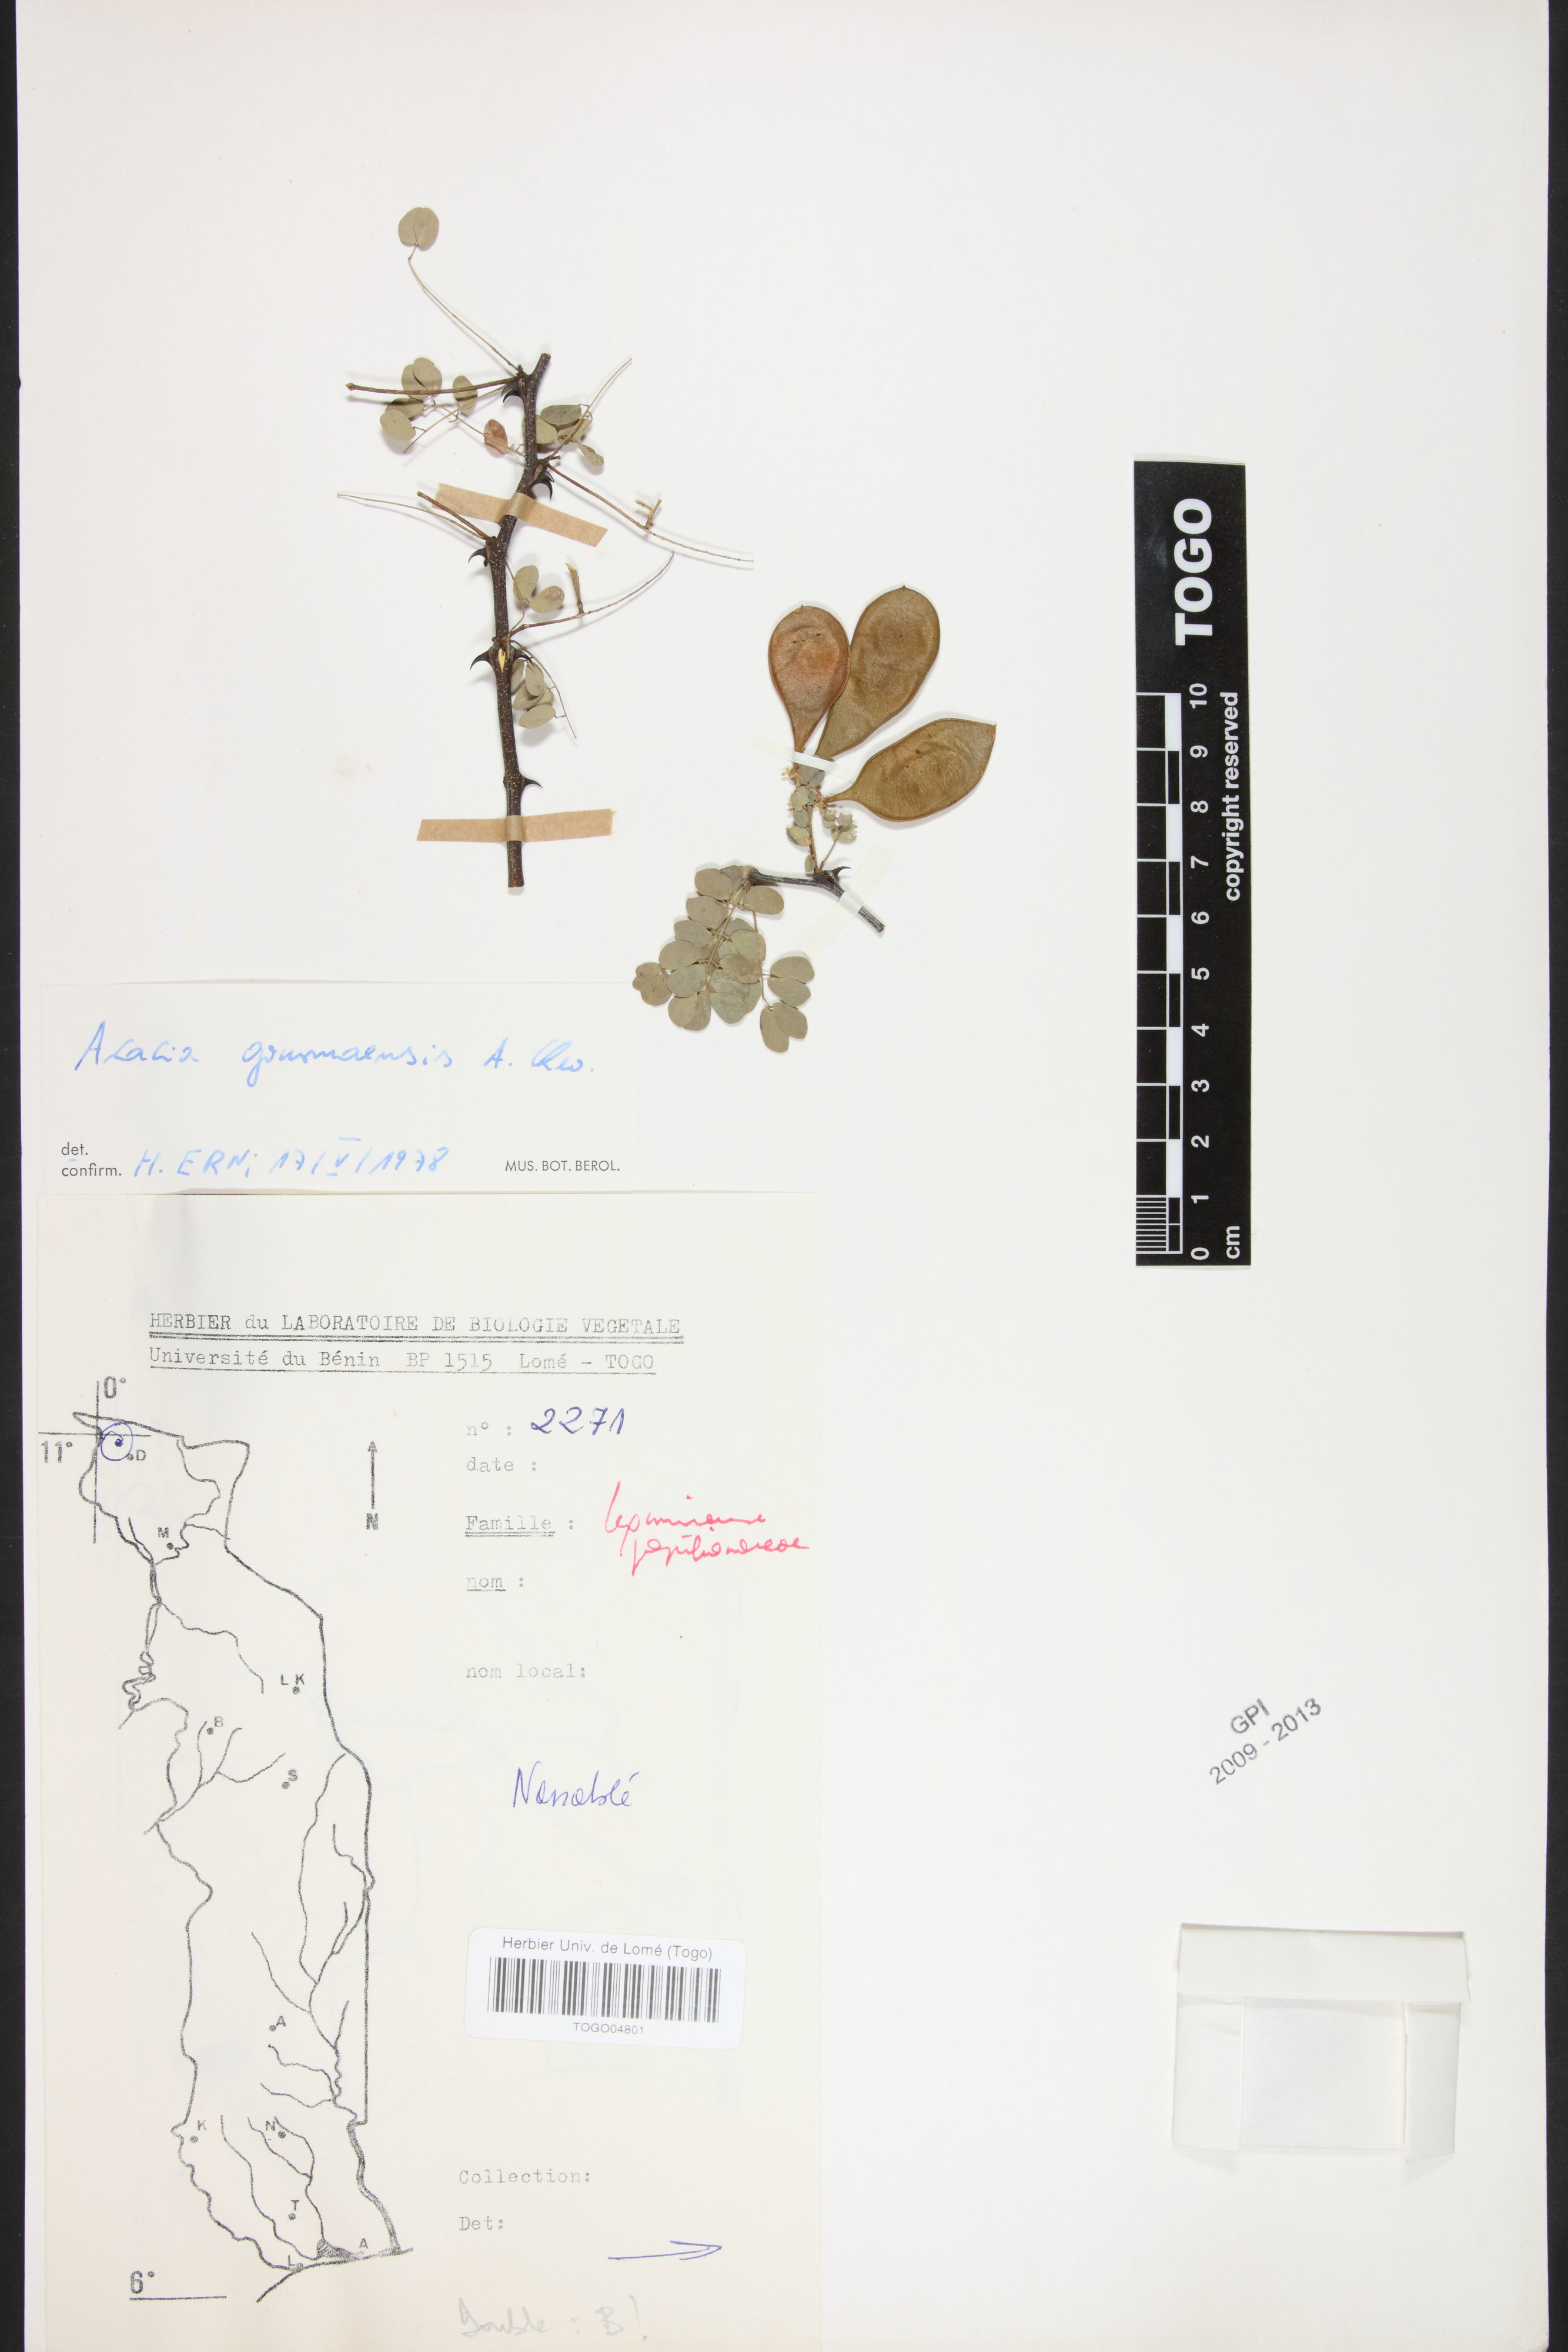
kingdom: Plantae
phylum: Tracheophyta
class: Magnoliopsida
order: Fabales
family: Fabaceae
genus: Senegalia
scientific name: Senegalia gourmaensis
